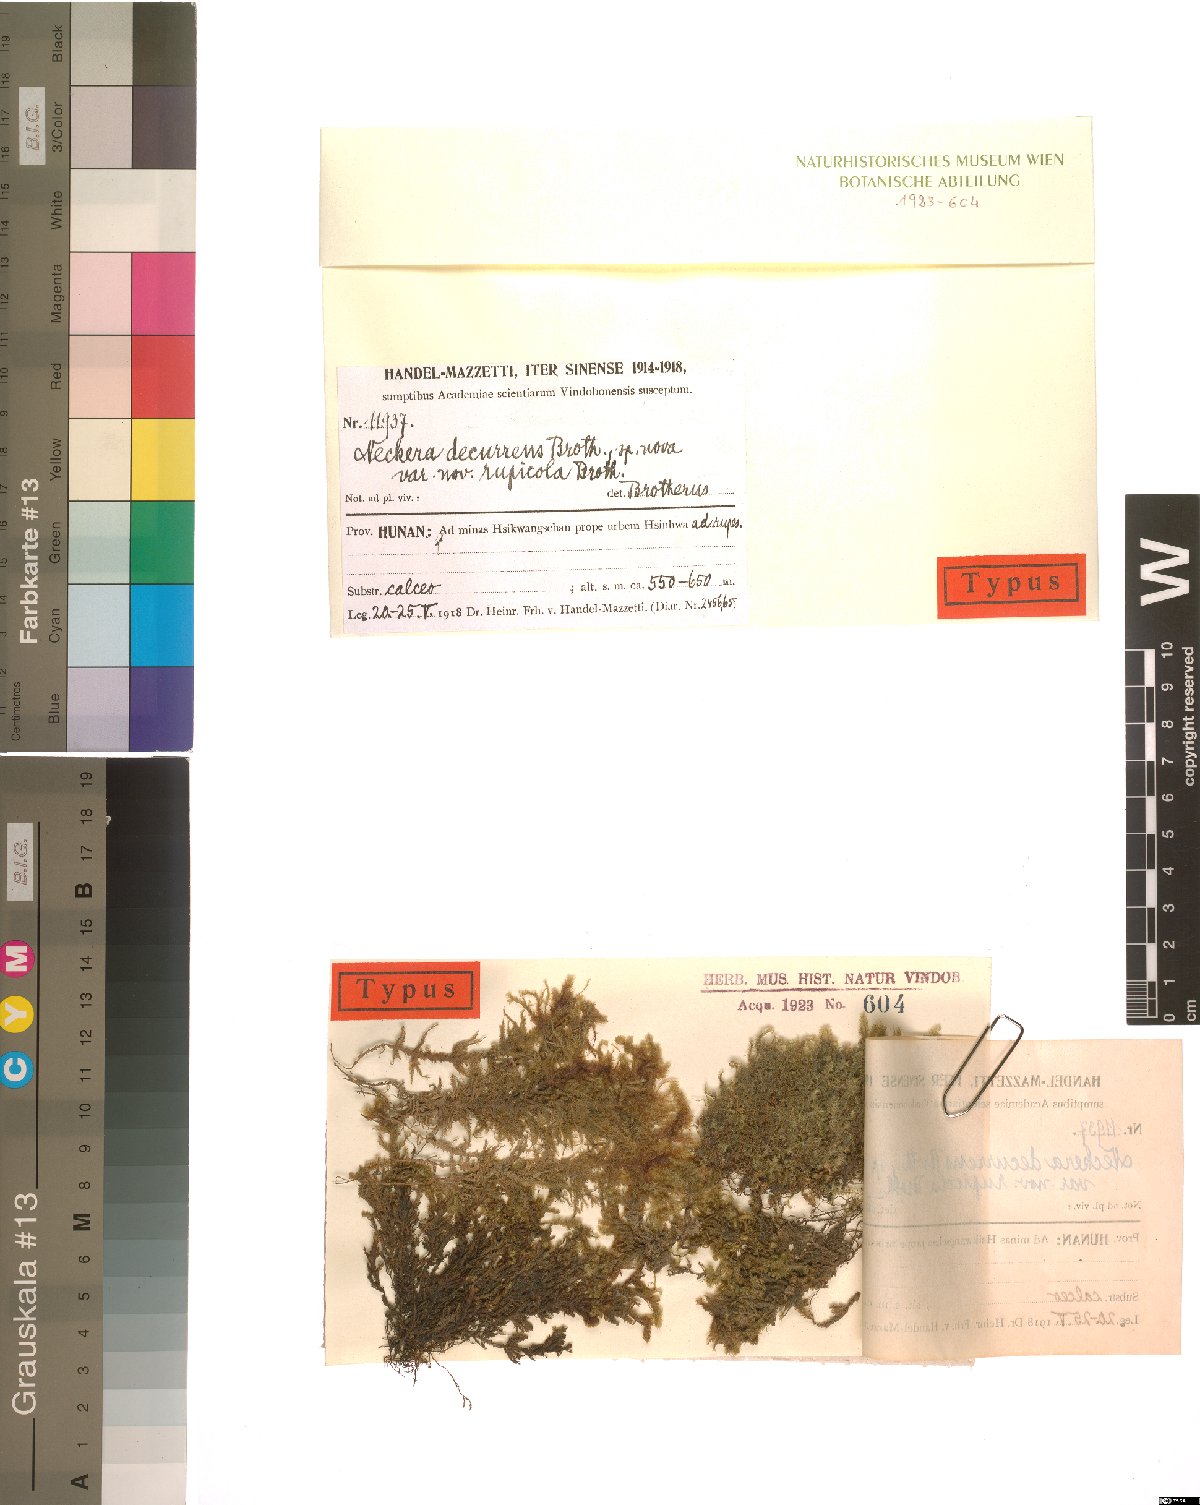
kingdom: Plantae
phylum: Bryophyta
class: Bryopsida
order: Hypnales
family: Neckeraceae
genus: Forsstroemia
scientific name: Forsstroemia fauriei
